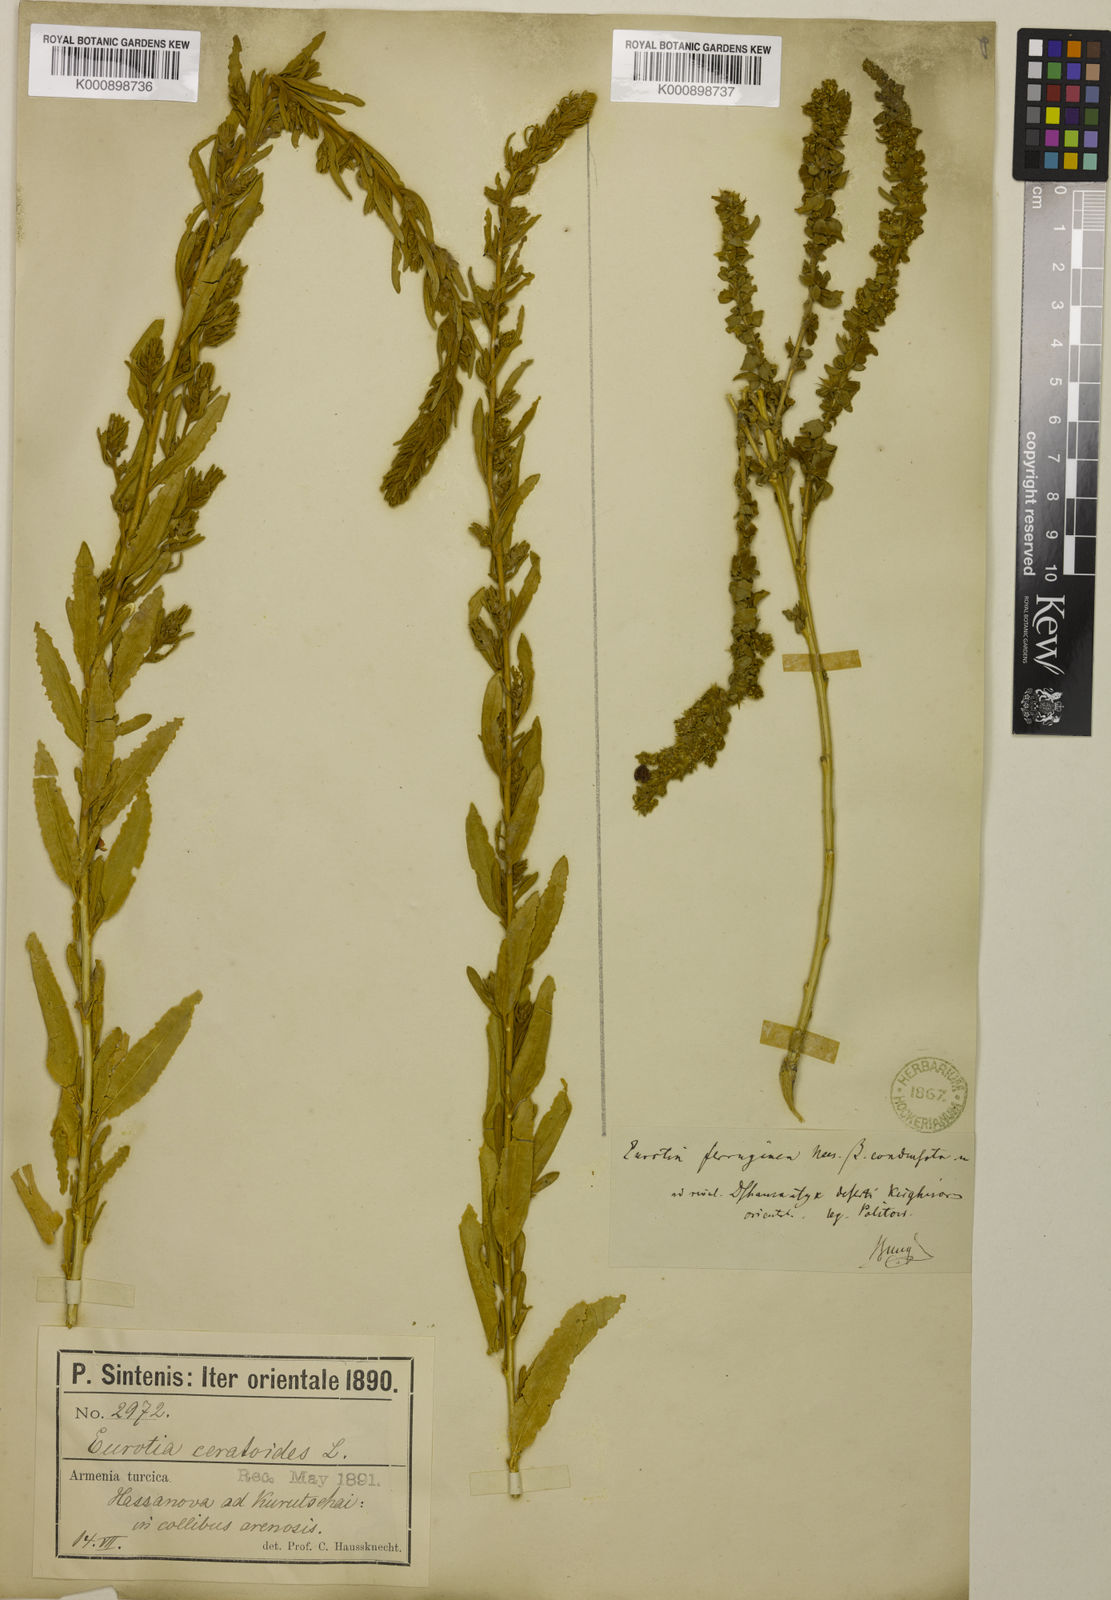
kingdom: Plantae
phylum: Tracheophyta
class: Magnoliopsida
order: Caryophyllales
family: Amaranthaceae
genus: Krascheninnikovia
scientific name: Krascheninnikovia ceratoides
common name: Pamirian winterfat
